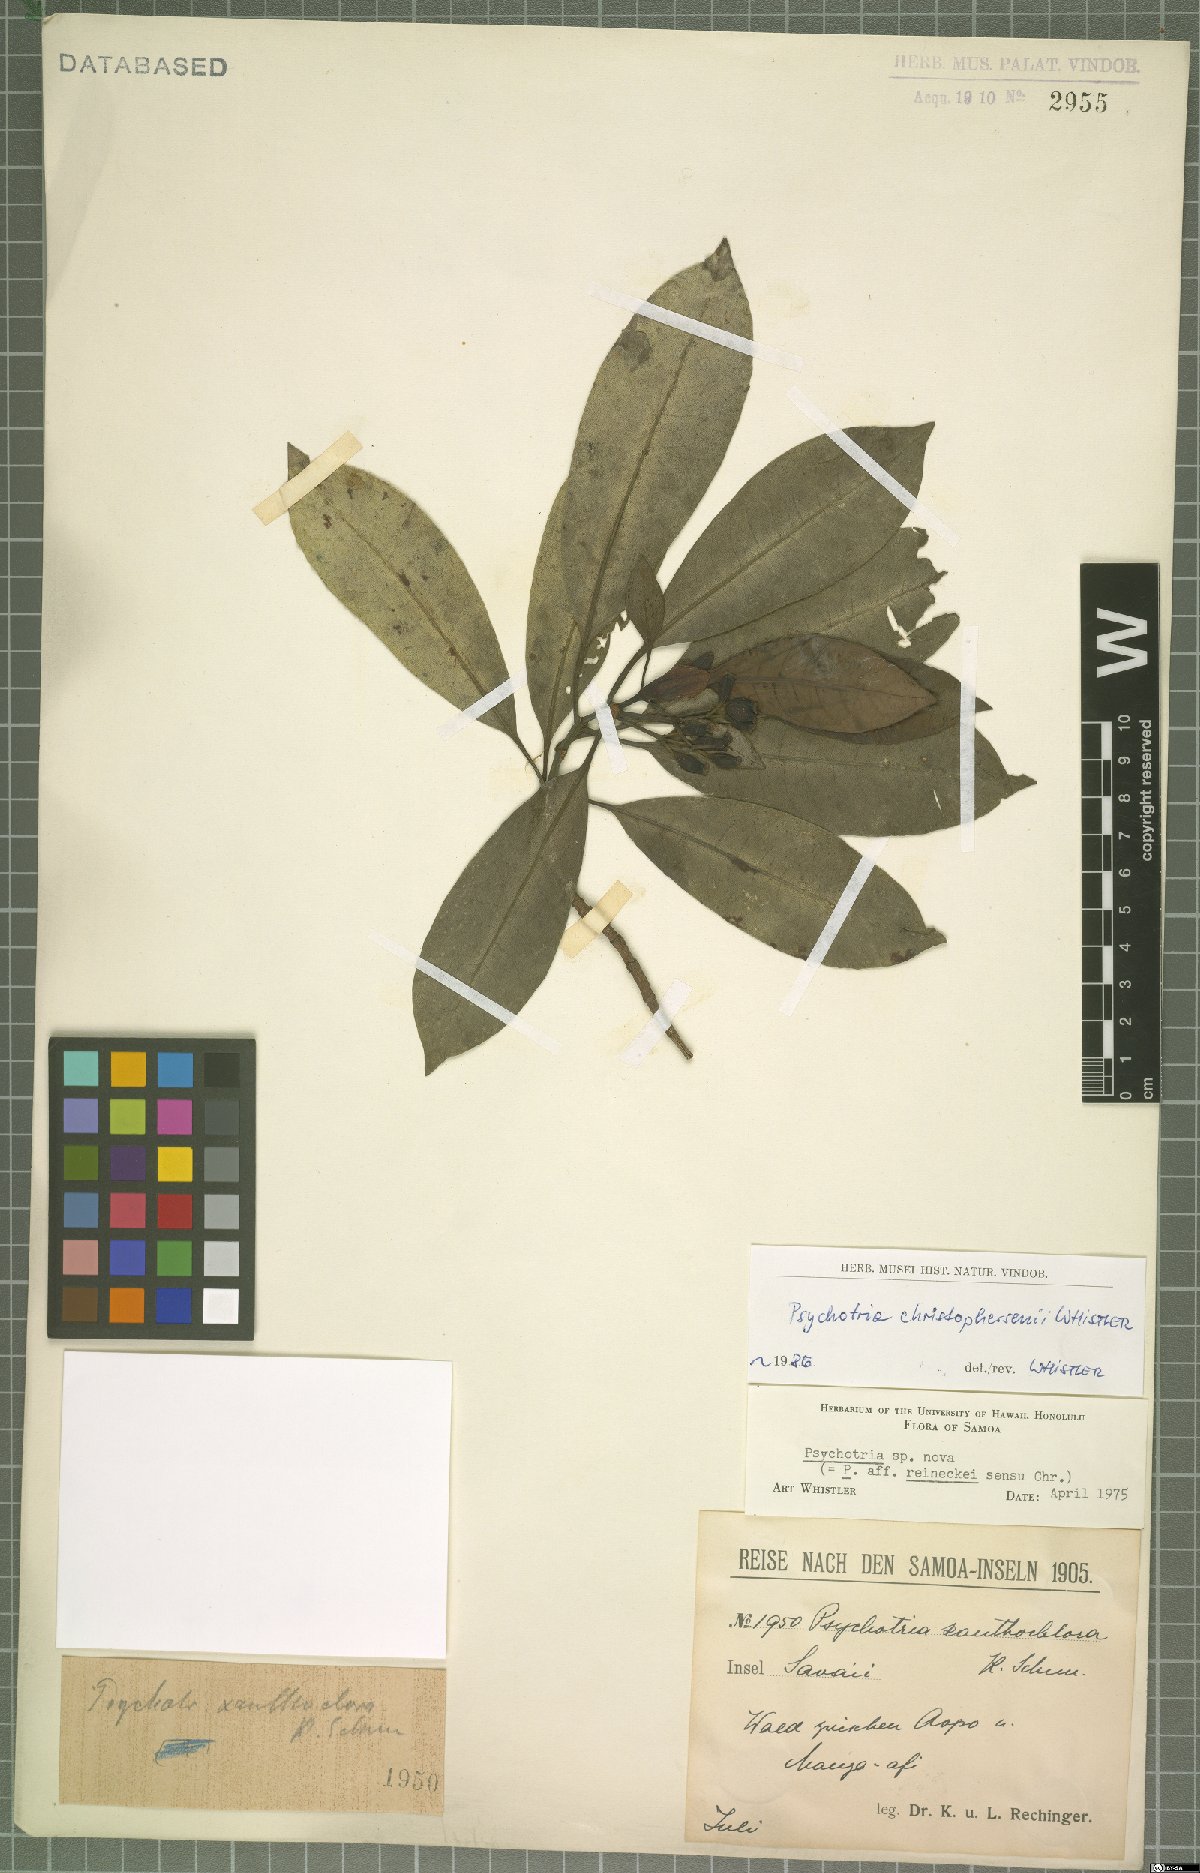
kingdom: Plantae
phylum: Tracheophyta
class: Magnoliopsida
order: Gentianales
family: Rubiaceae
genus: Psychotria
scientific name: Psychotria christophersenii
